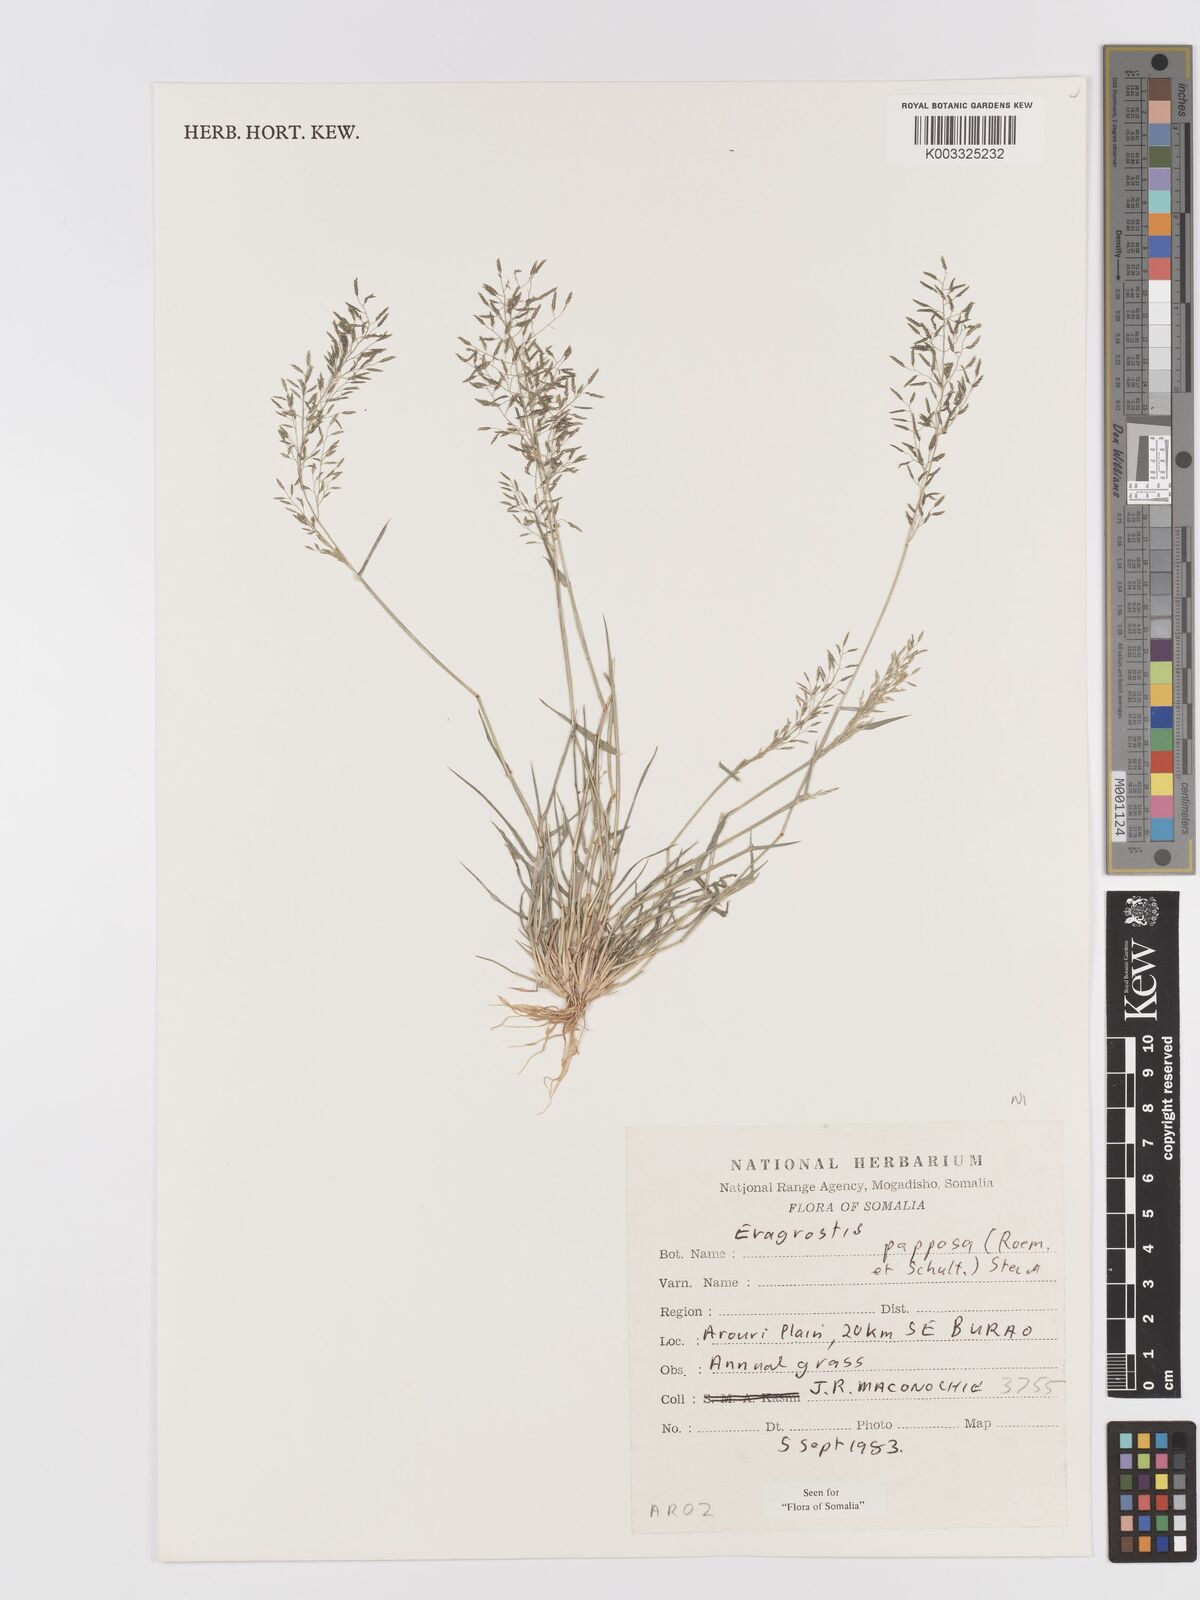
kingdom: Plantae
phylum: Tracheophyta
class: Liliopsida
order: Poales
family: Poaceae
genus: Eragrostis
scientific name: Eragrostis papposa
